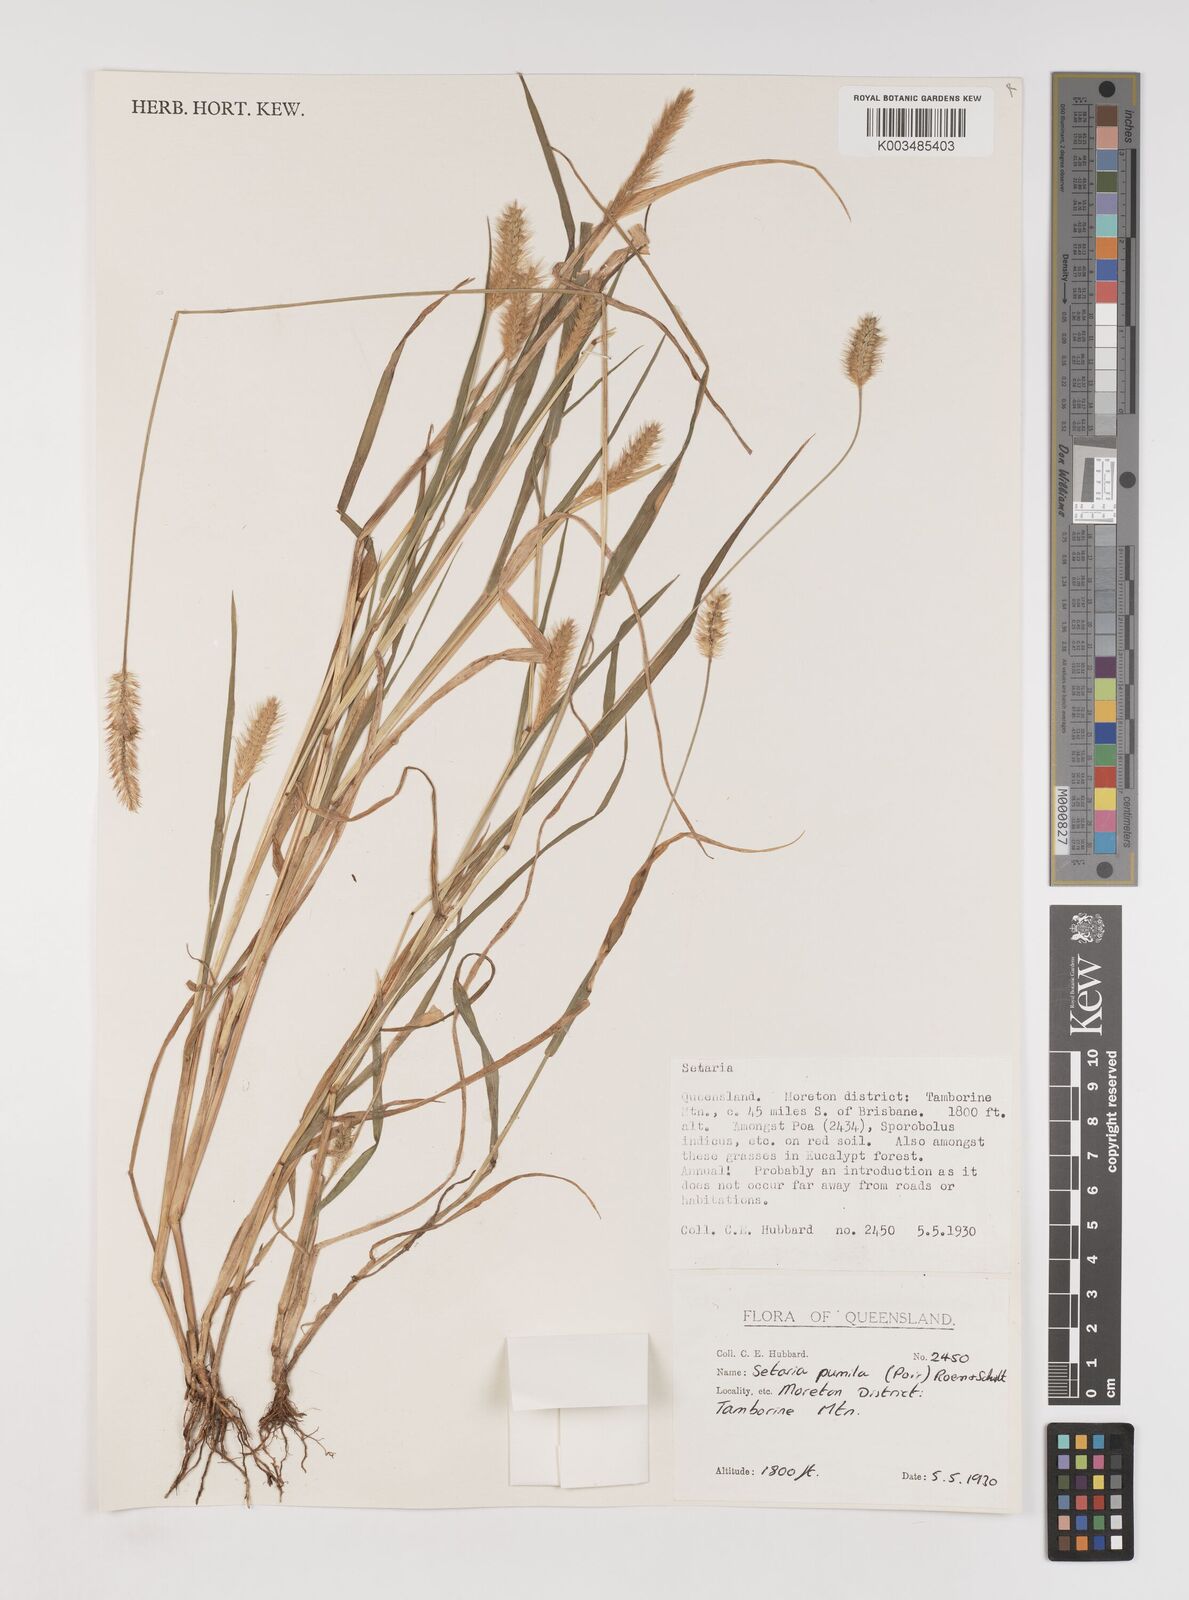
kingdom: Plantae
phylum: Tracheophyta
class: Liliopsida
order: Poales
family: Poaceae
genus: Setaria
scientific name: Setaria pumila
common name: Yellow bristle-grass
